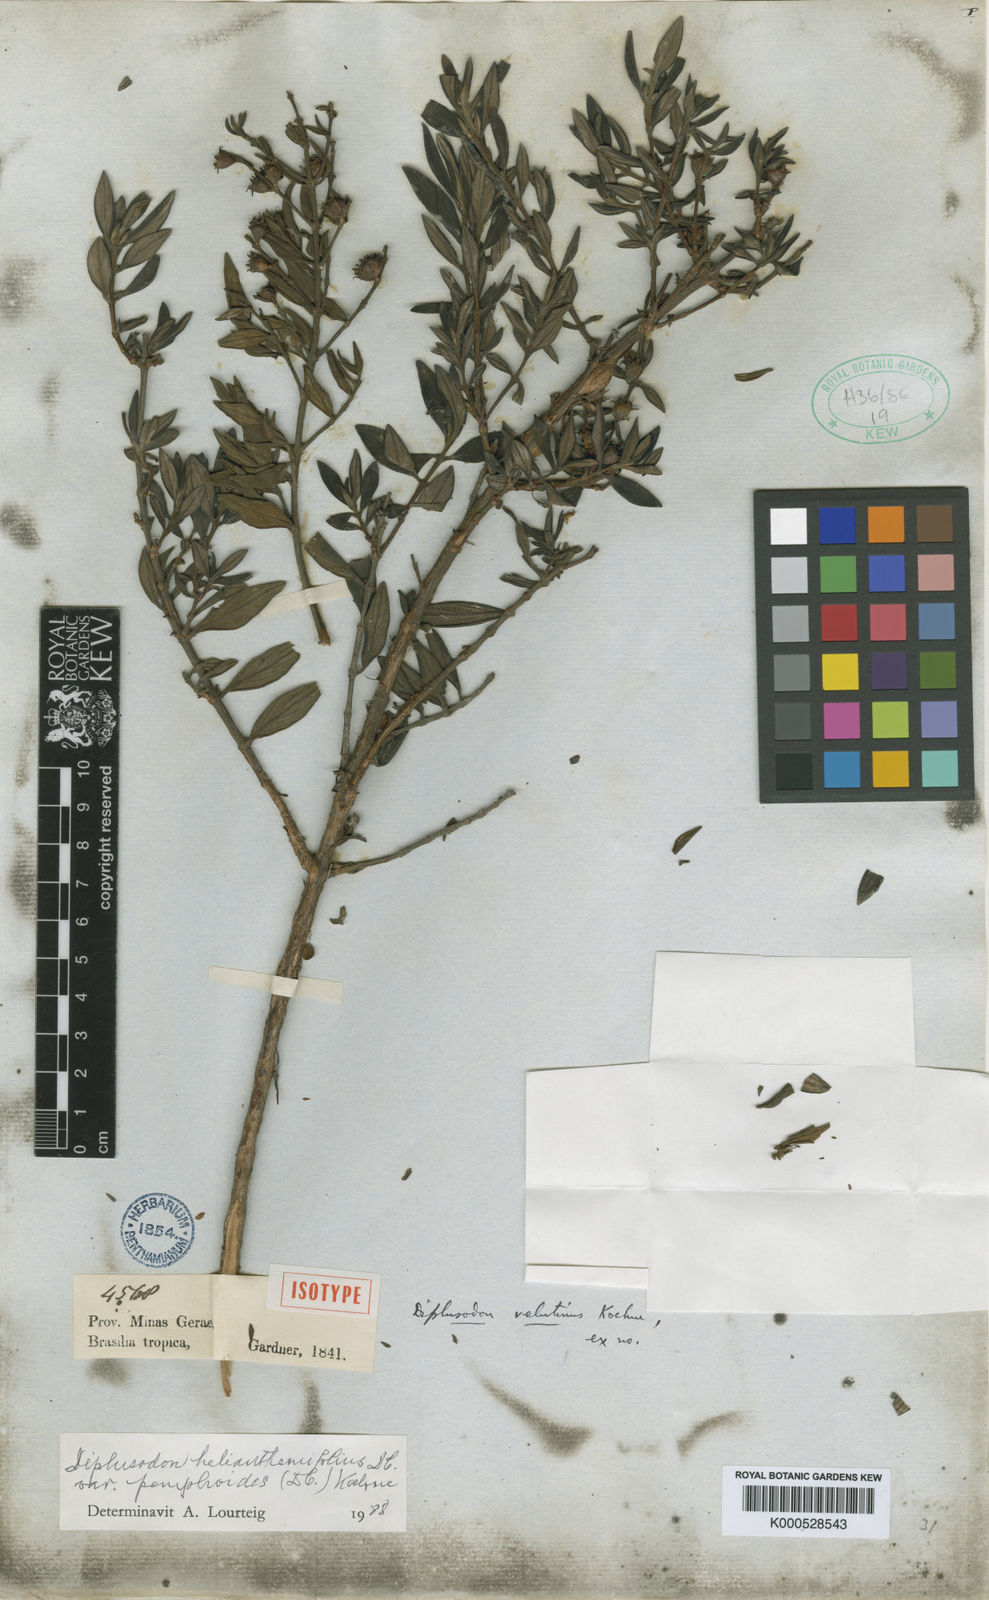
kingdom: Plantae
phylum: Tracheophyta
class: Magnoliopsida
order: Myrtales
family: Lythraceae
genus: Diplusodon
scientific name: Diplusodon helianthemifolius
